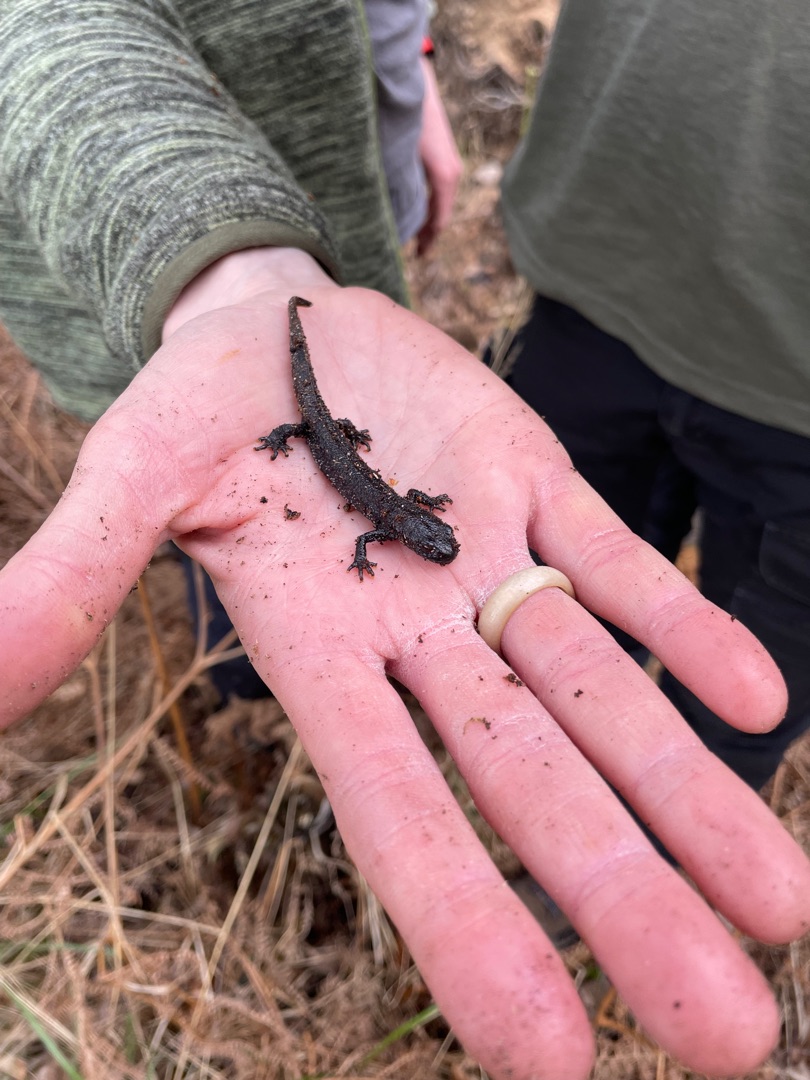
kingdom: Animalia
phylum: Chordata
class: Amphibia
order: Caudata
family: Salamandridae
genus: Triturus
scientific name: Triturus cristatus
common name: Stor vandsalamander
